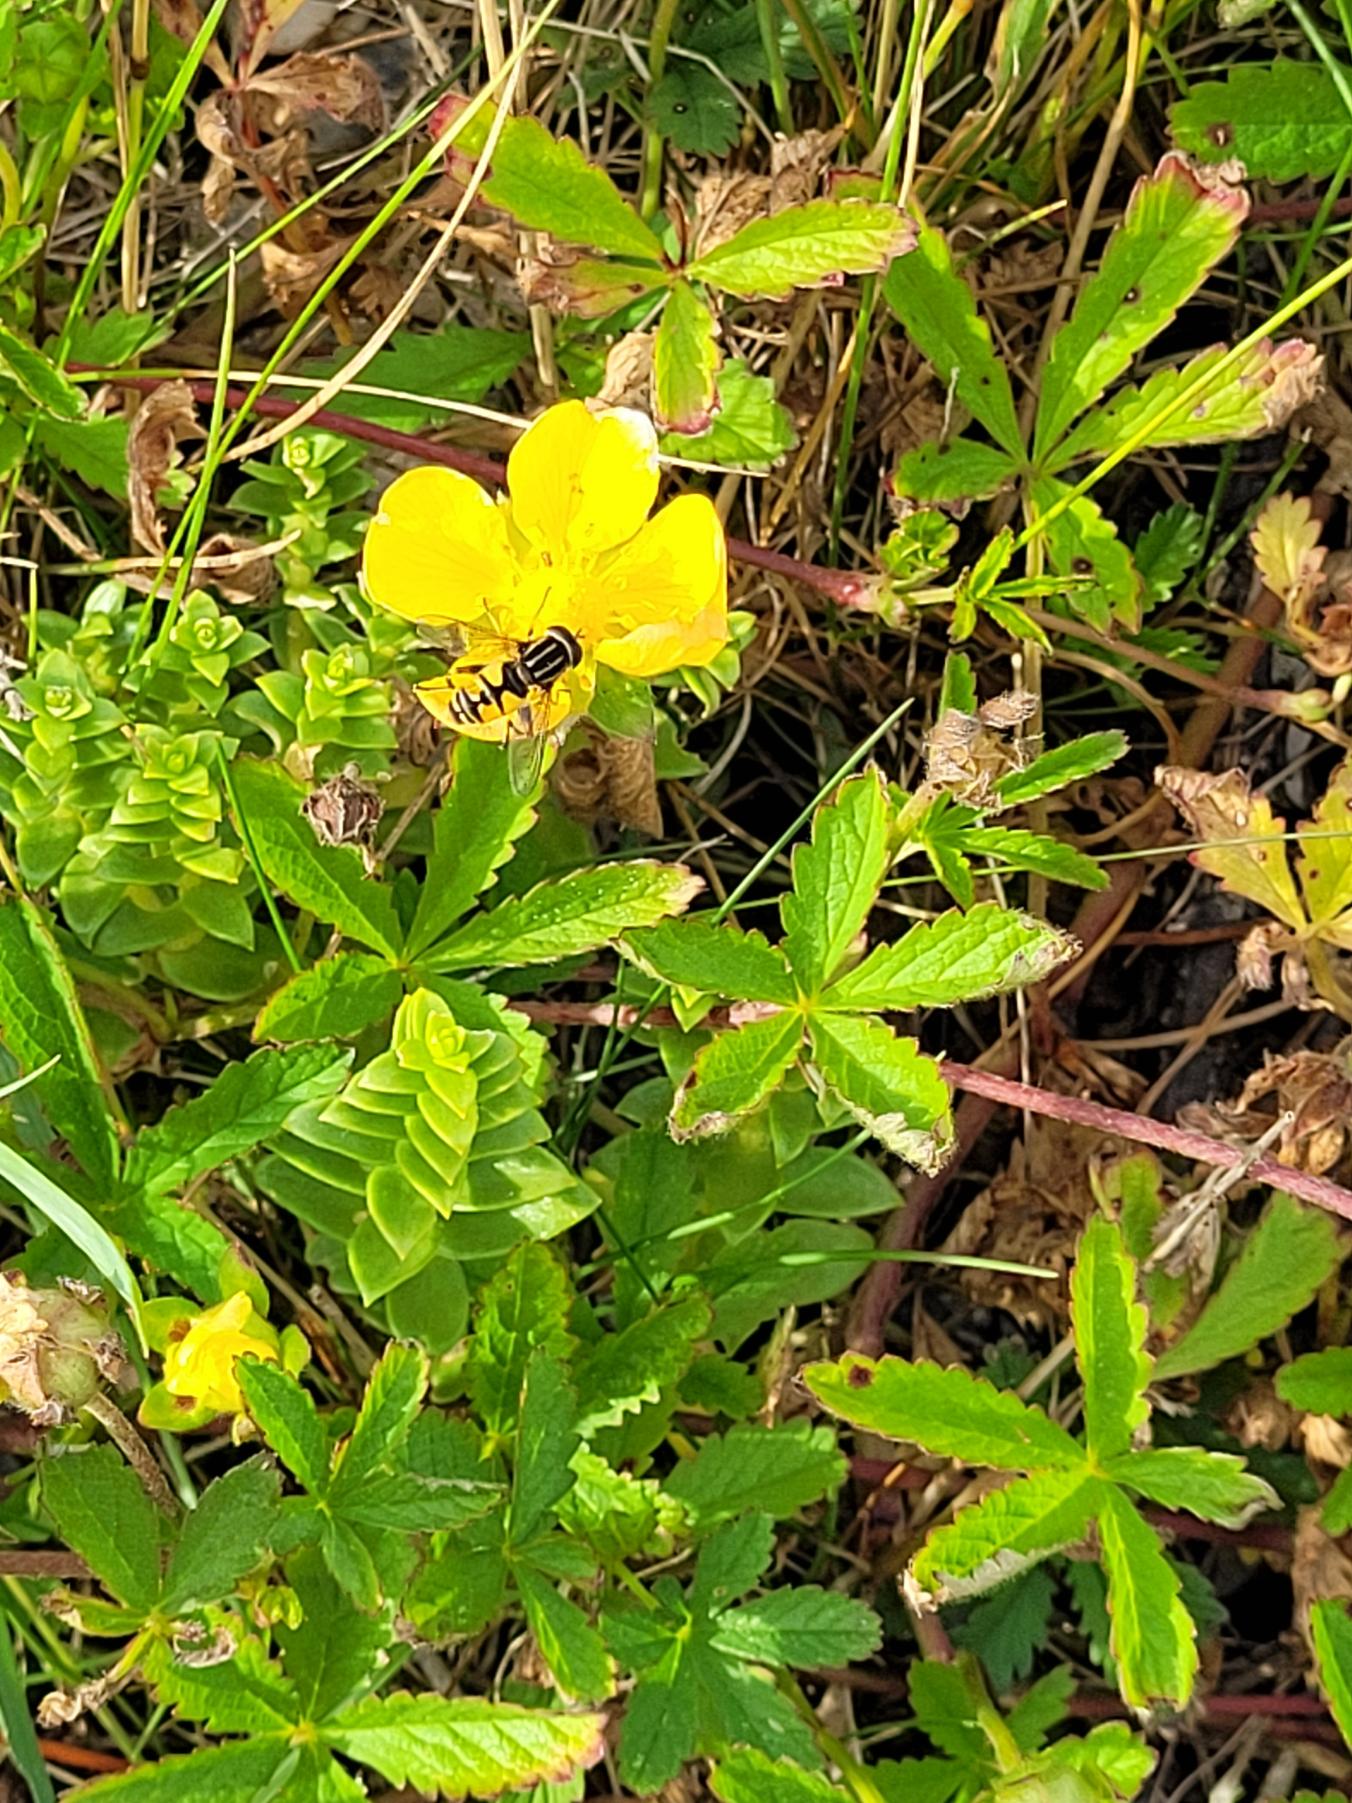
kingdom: Plantae
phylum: Tracheophyta
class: Magnoliopsida
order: Rosales
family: Rosaceae
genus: Potentilla
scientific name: Potentilla reptans
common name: Krybende potentil
